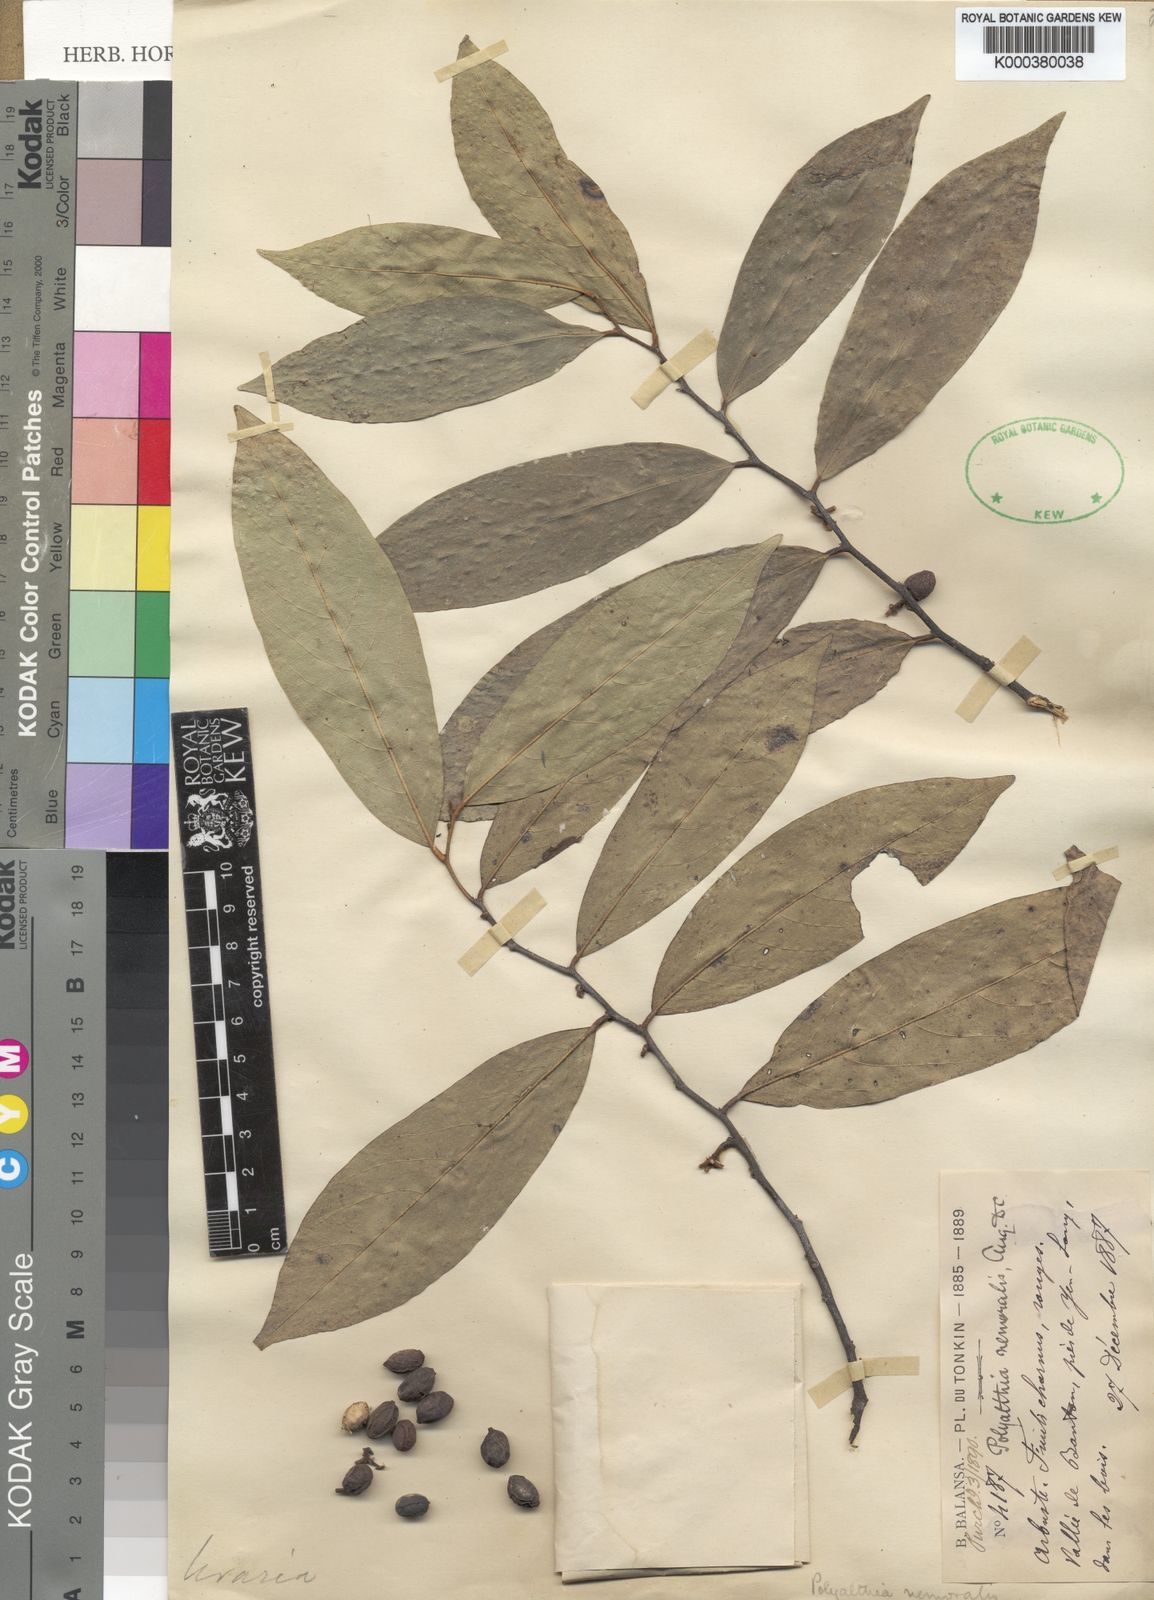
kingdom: Plantae
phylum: Tracheophyta
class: Magnoliopsida
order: Magnoliales
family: Annonaceae
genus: Trivalvaria
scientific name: Trivalvaria costata
